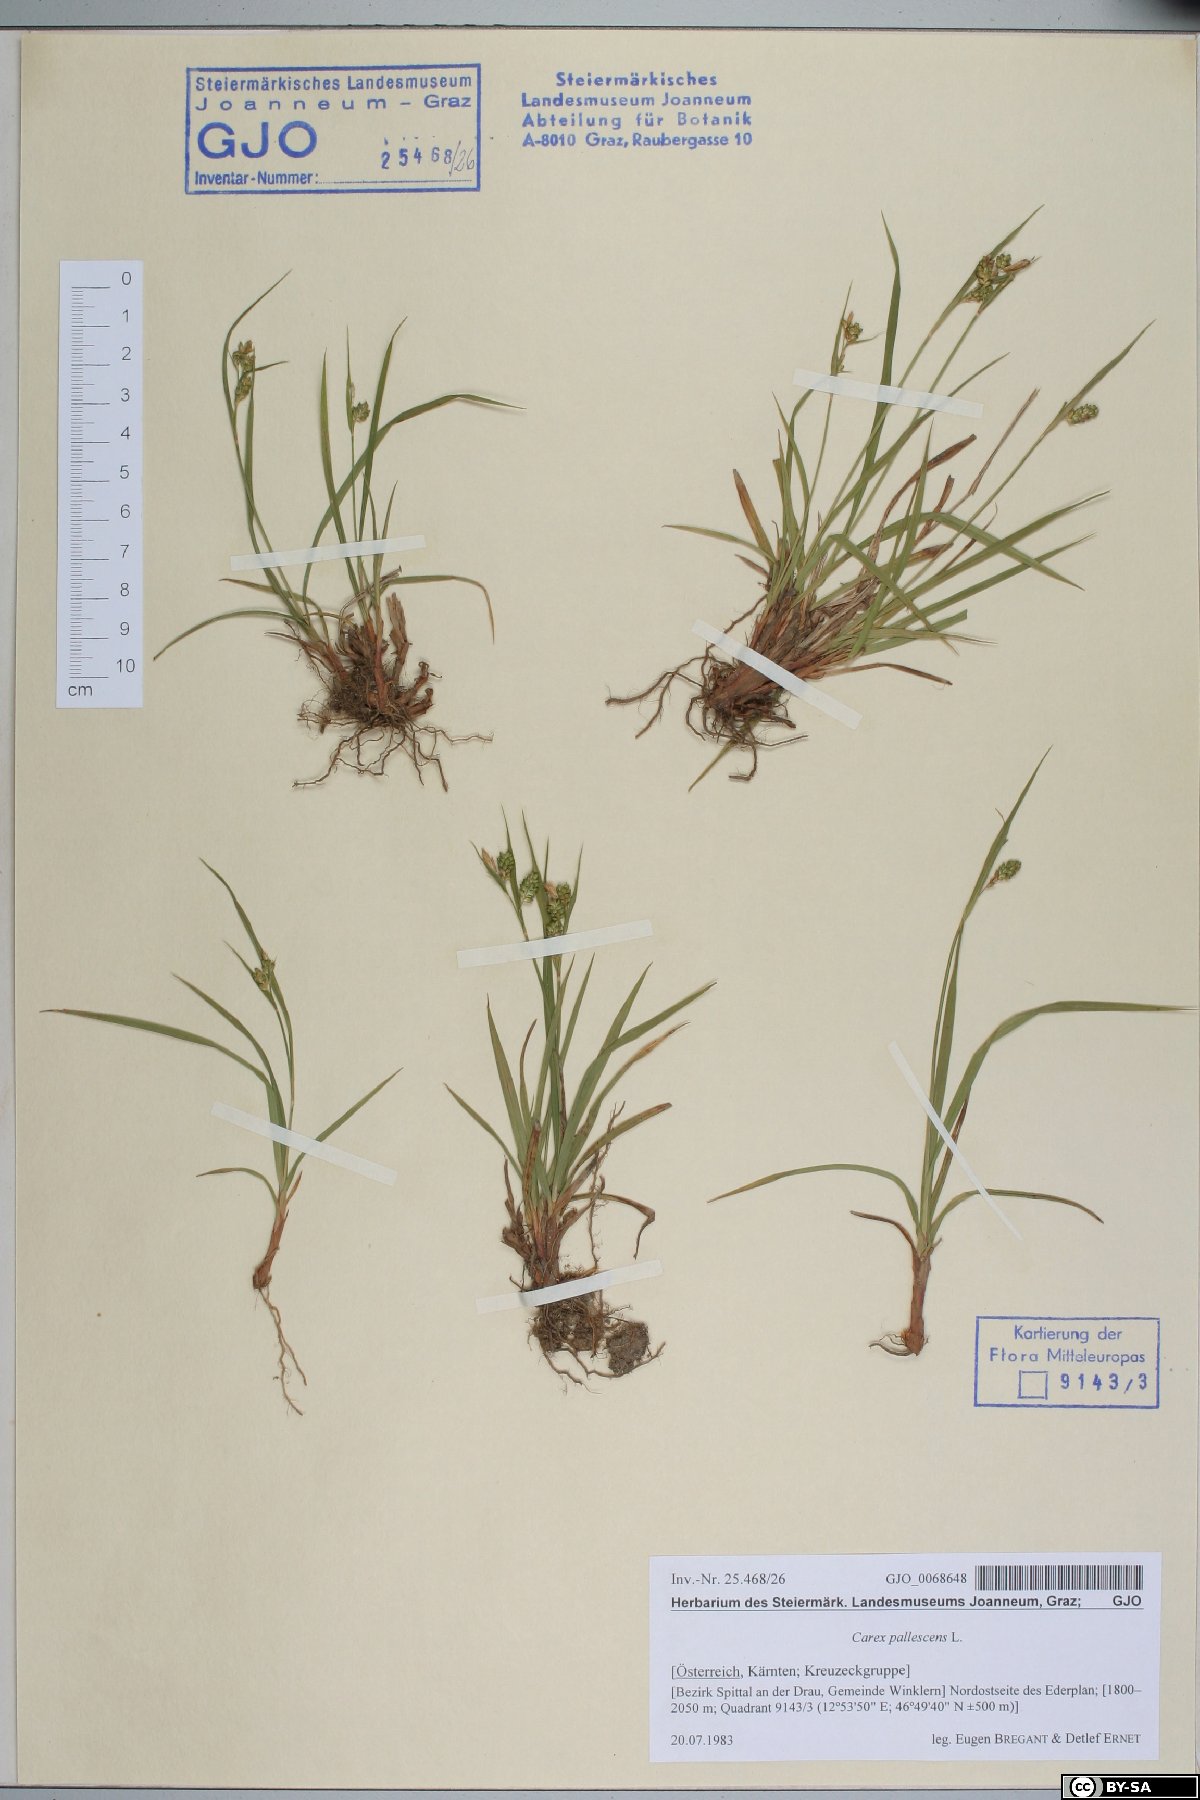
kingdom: Plantae
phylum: Tracheophyta
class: Liliopsida
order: Poales
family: Cyperaceae
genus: Carex
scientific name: Carex pallescens
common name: Pale sedge
